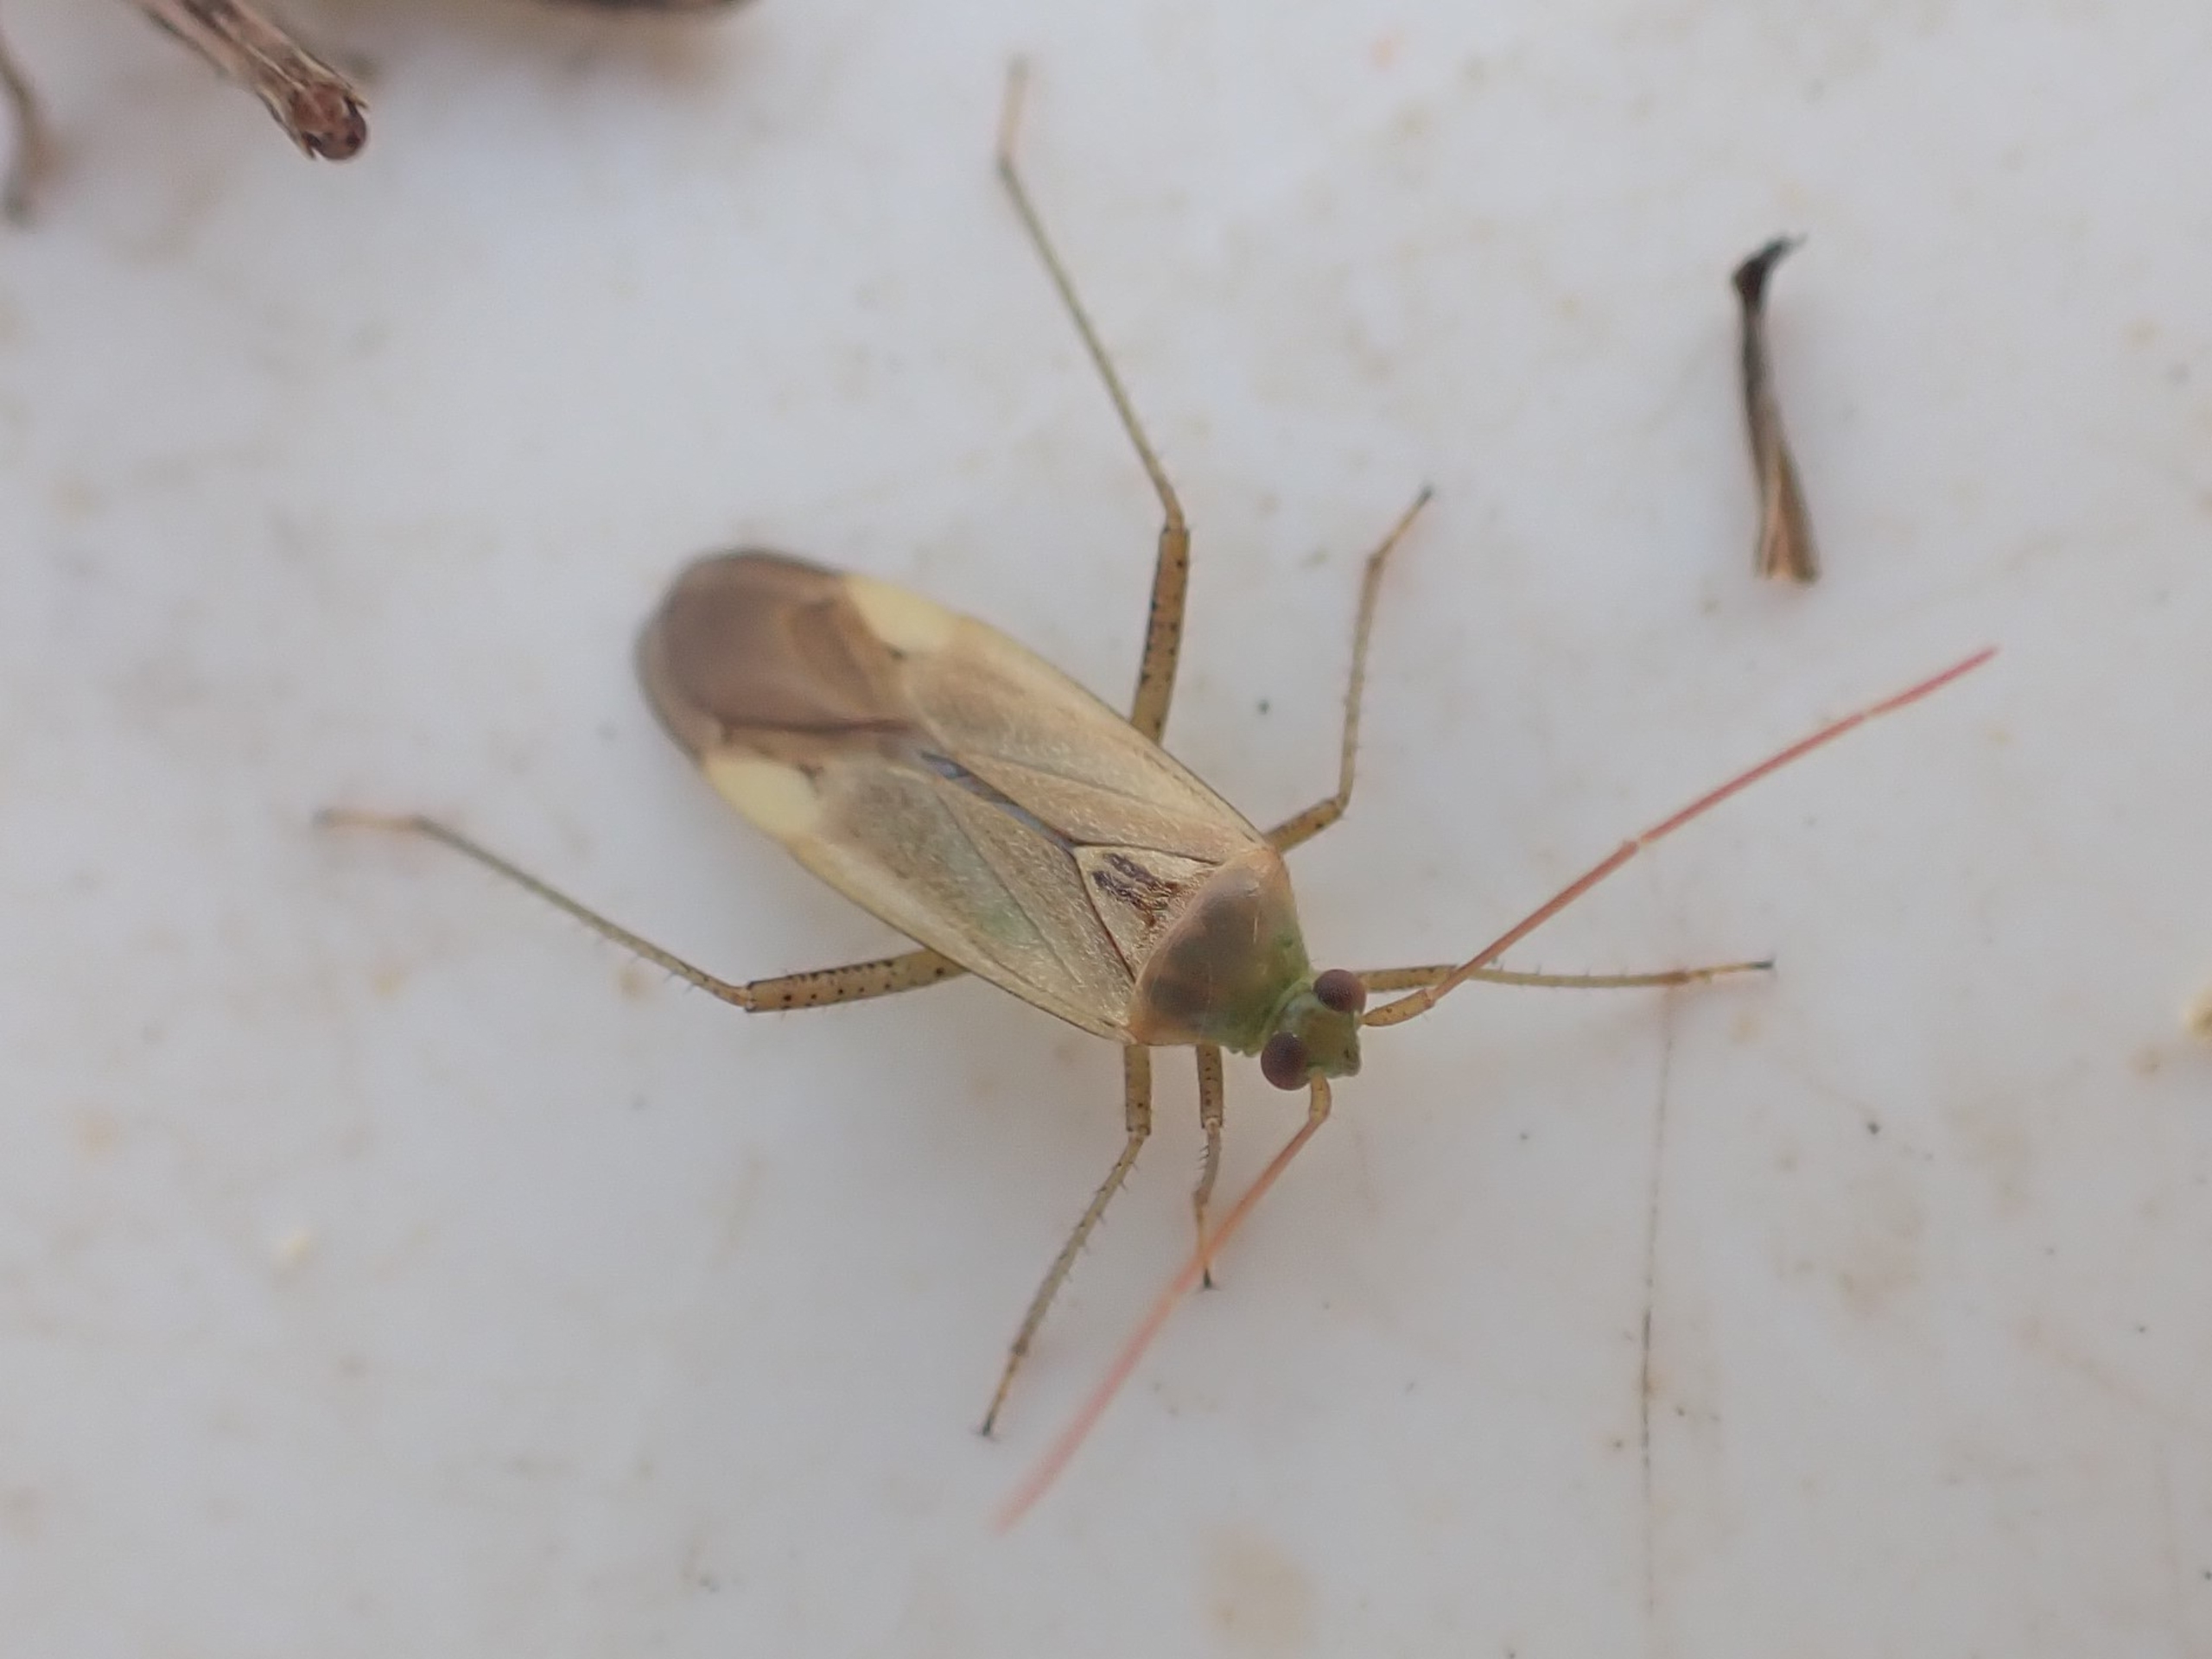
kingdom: Animalia
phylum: Arthropoda
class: Insecta
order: Hemiptera
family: Miridae
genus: Adelphocoris
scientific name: Adelphocoris lineolatus
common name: Lucernetæge
